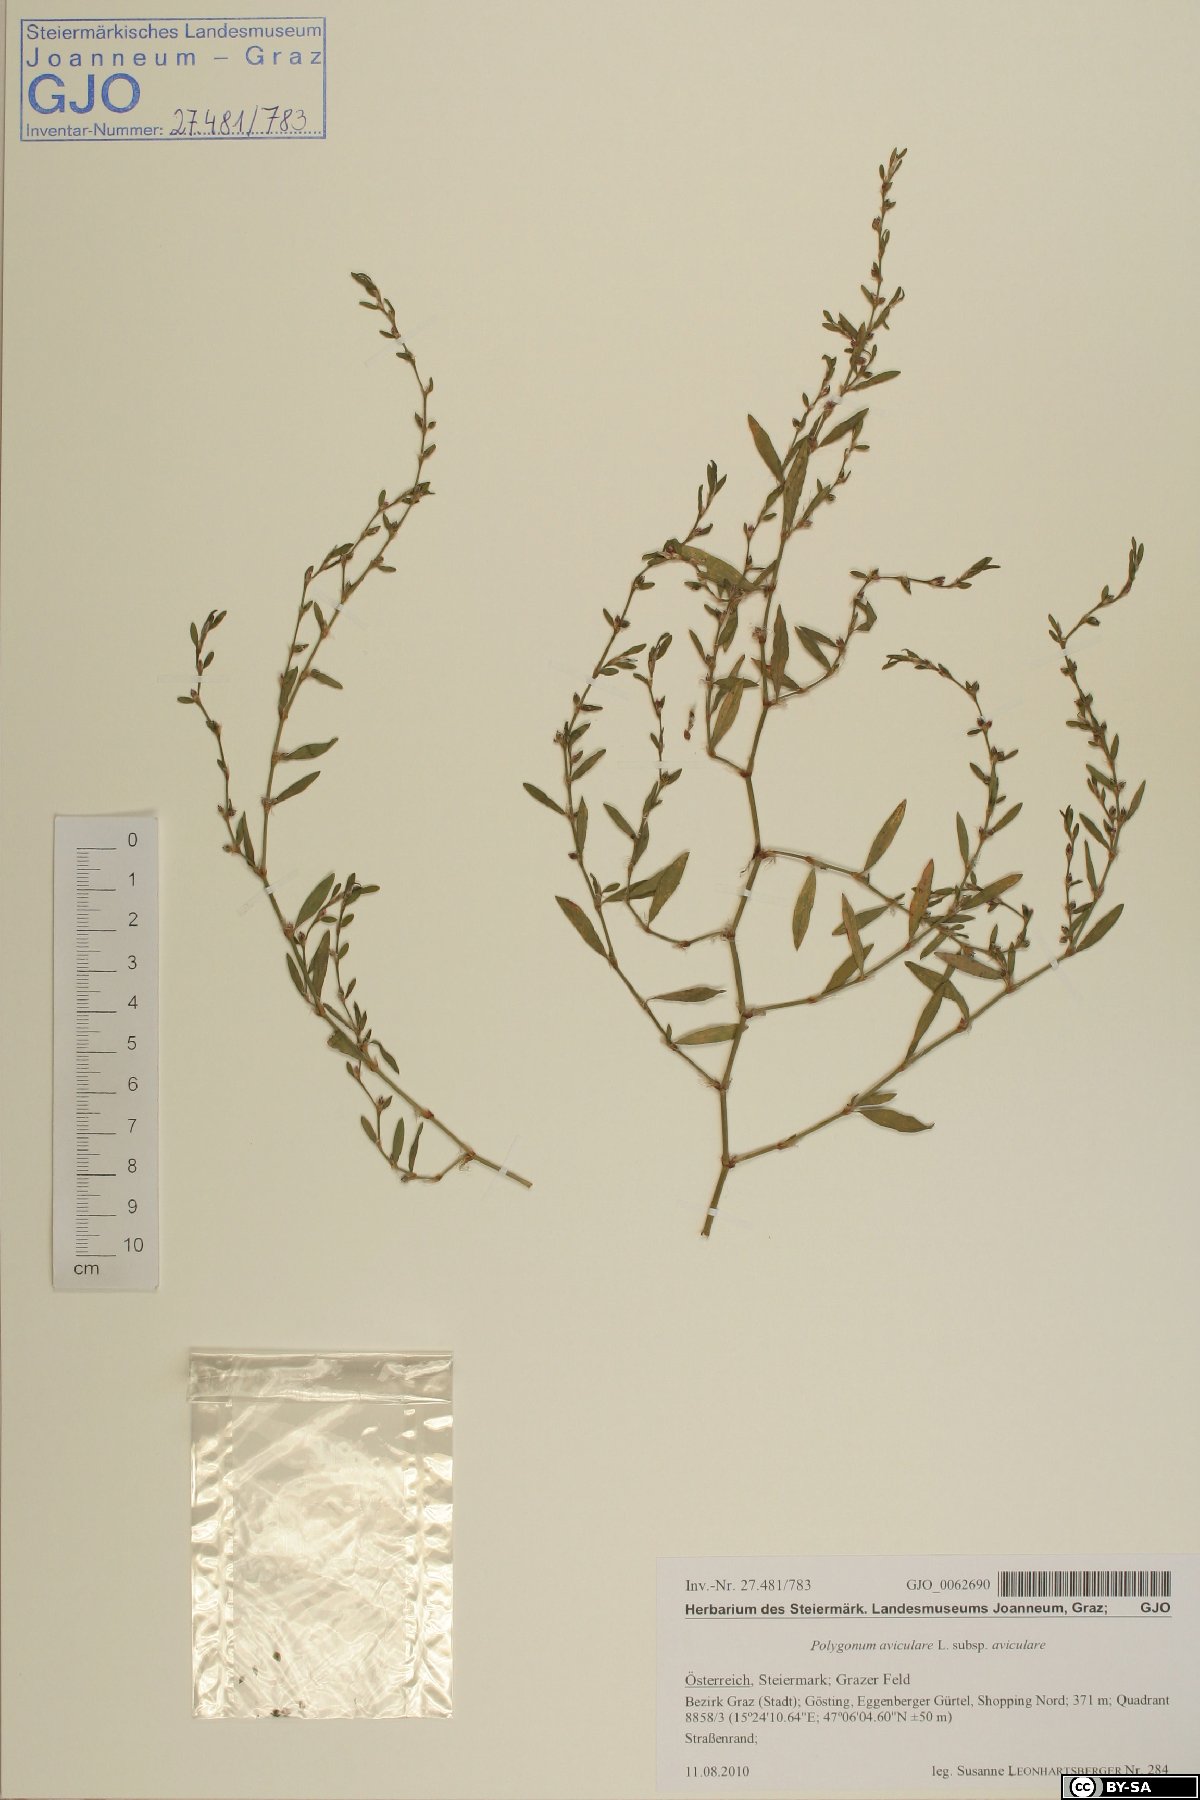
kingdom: Plantae
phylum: Tracheophyta
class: Magnoliopsida
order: Caryophyllales
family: Polygonaceae
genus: Polygonum
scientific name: Polygonum aviculare
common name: Prostrate knotweed
